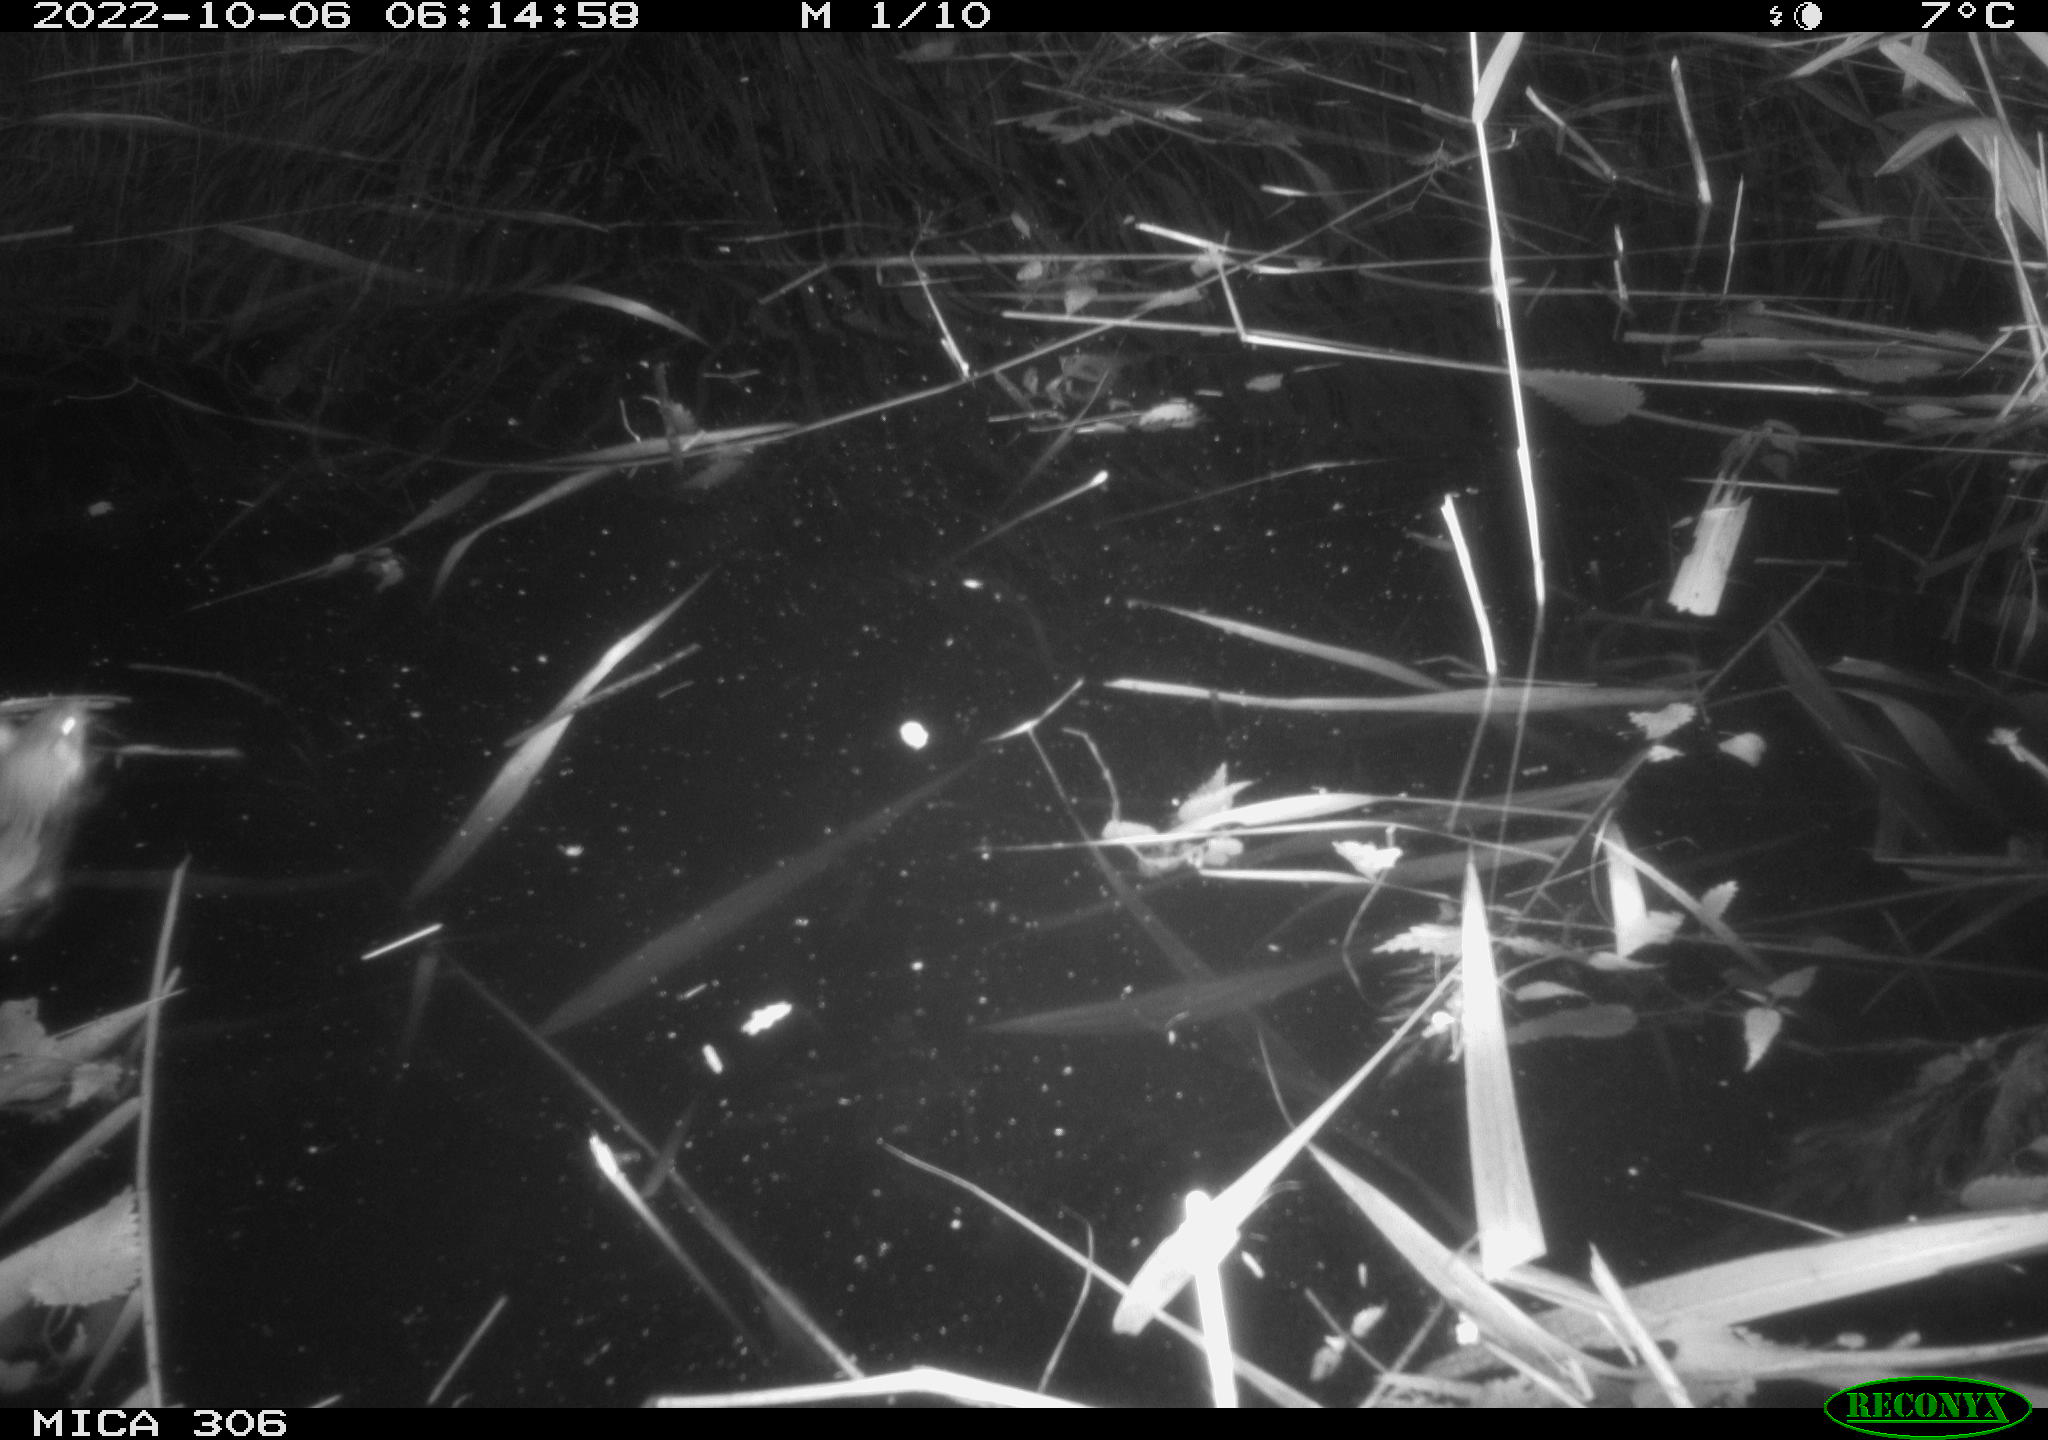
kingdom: Animalia
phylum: Chordata
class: Mammalia
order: Rodentia
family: Muridae
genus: Rattus
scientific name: Rattus norvegicus
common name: Brown rat
